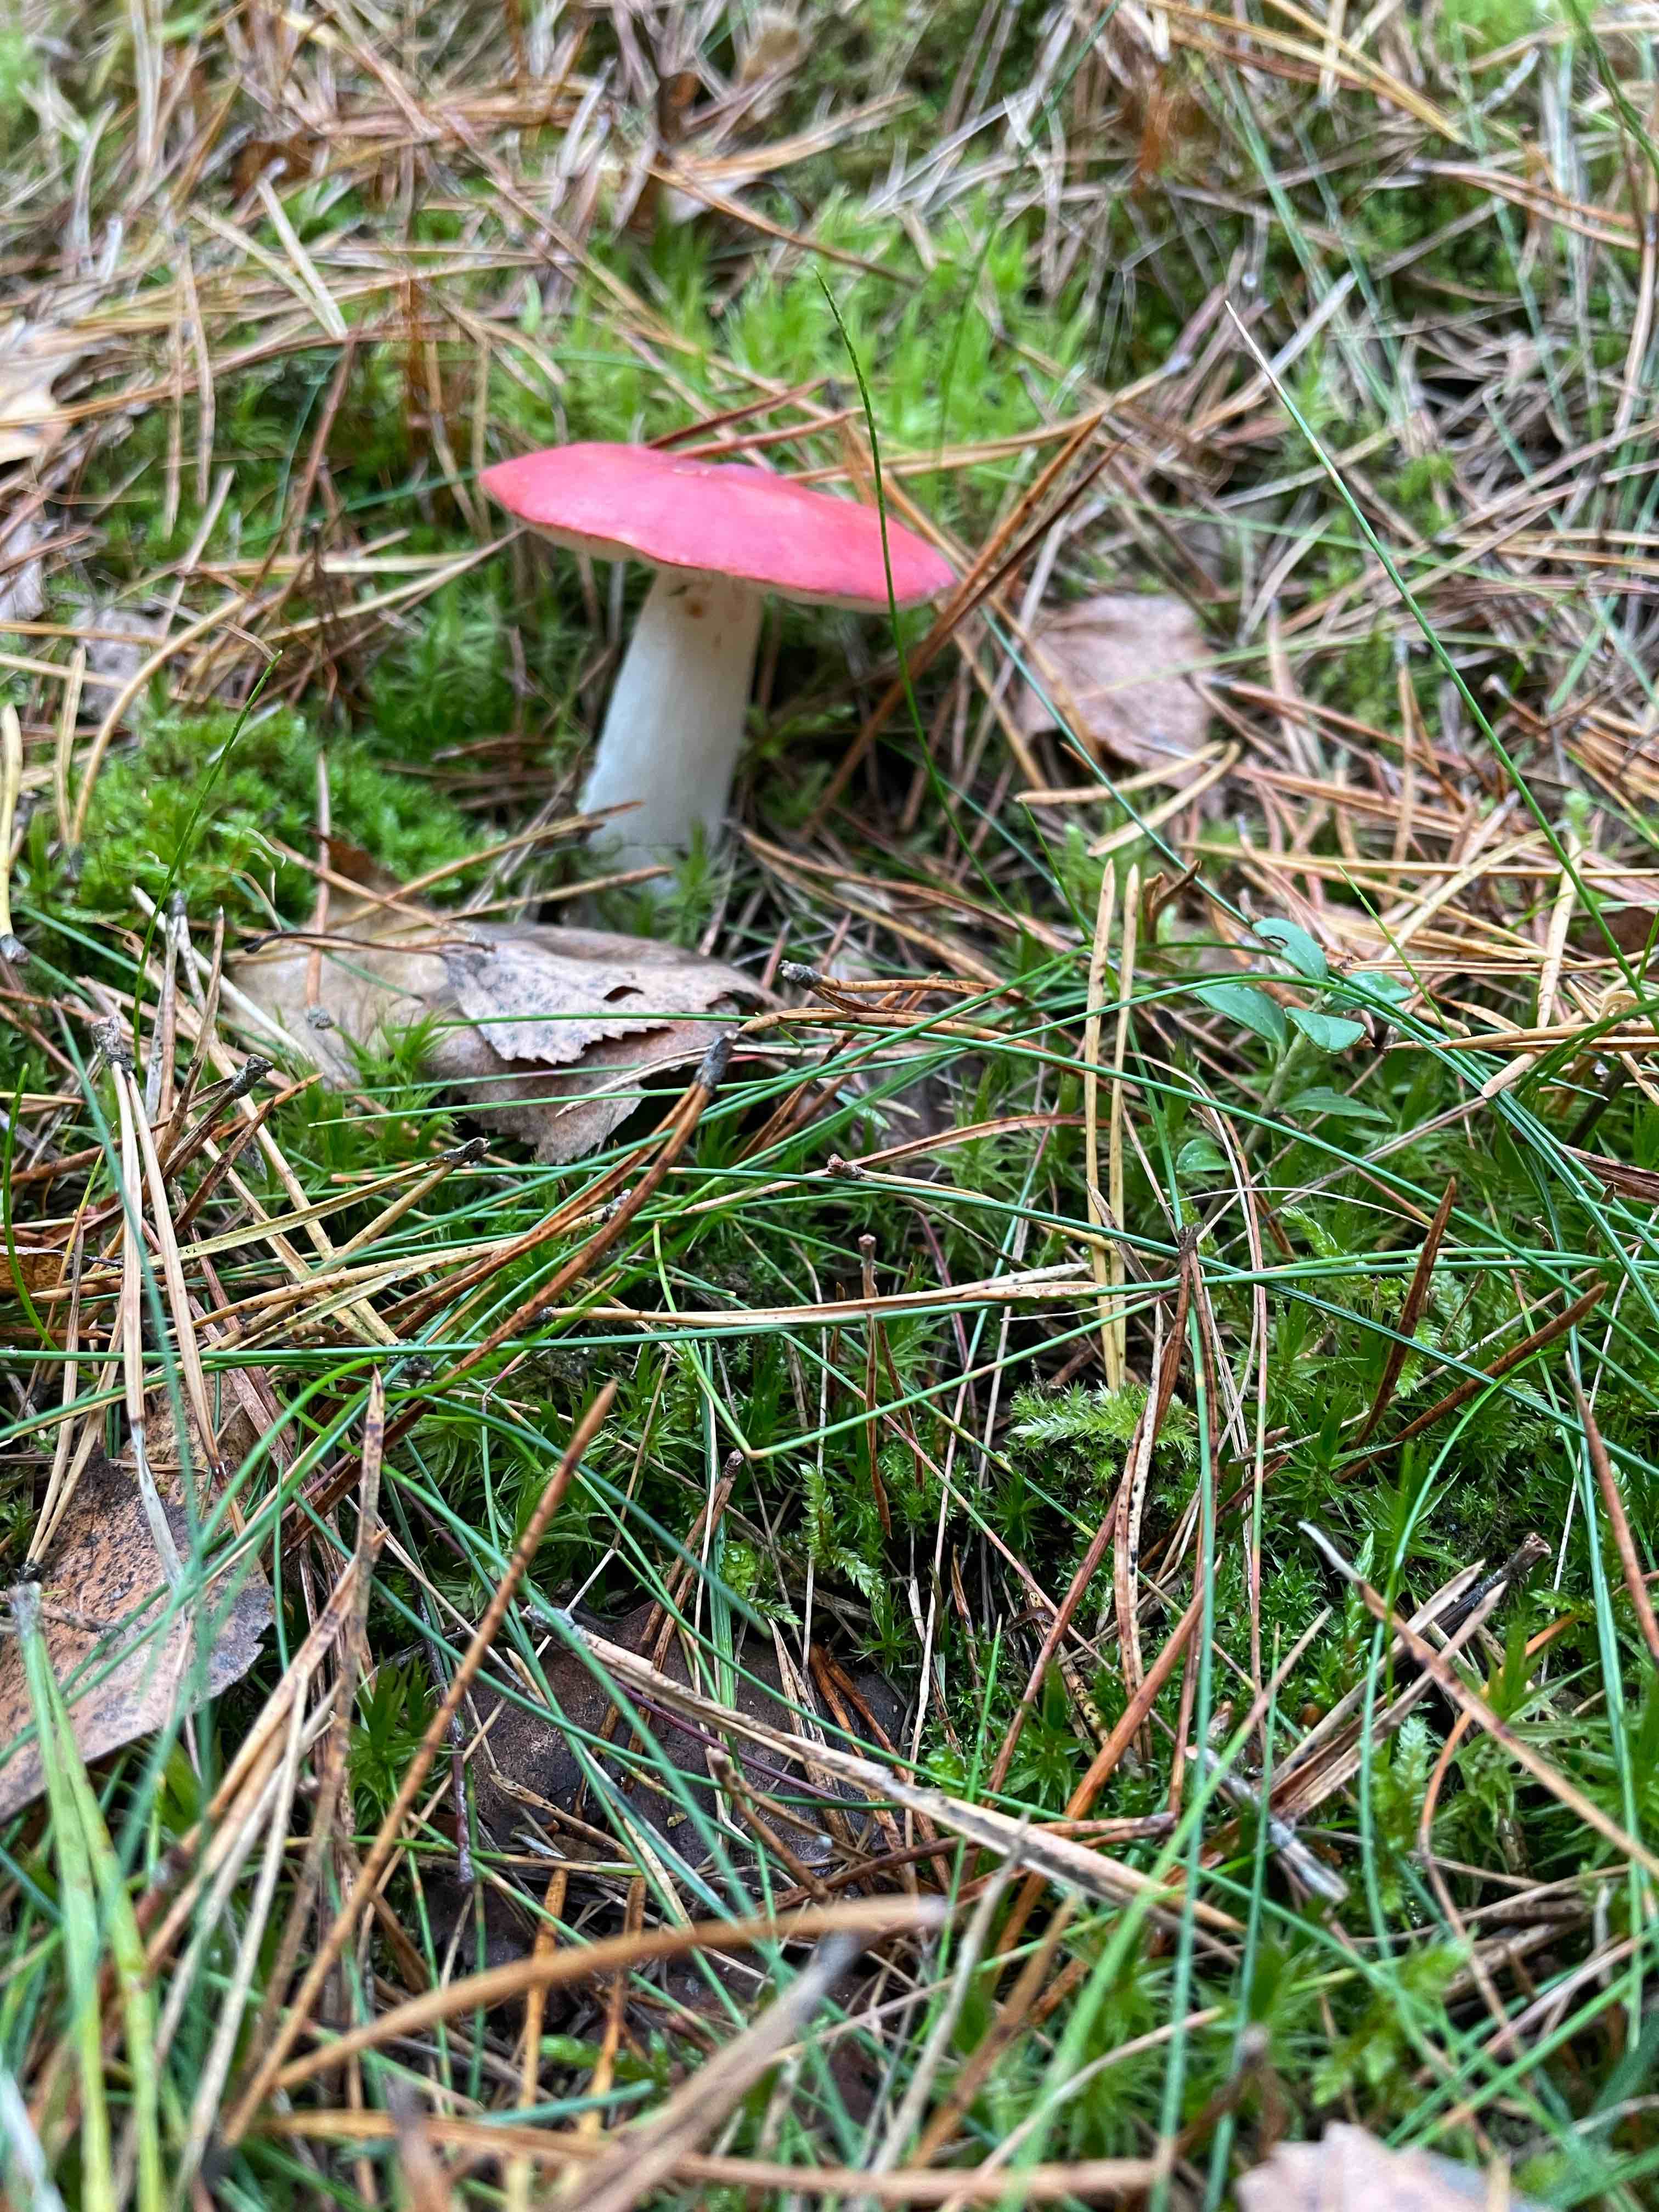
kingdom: Fungi
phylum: Basidiomycota
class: Agaricomycetes
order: Russulales
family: Russulaceae
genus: Russula
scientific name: Russula
